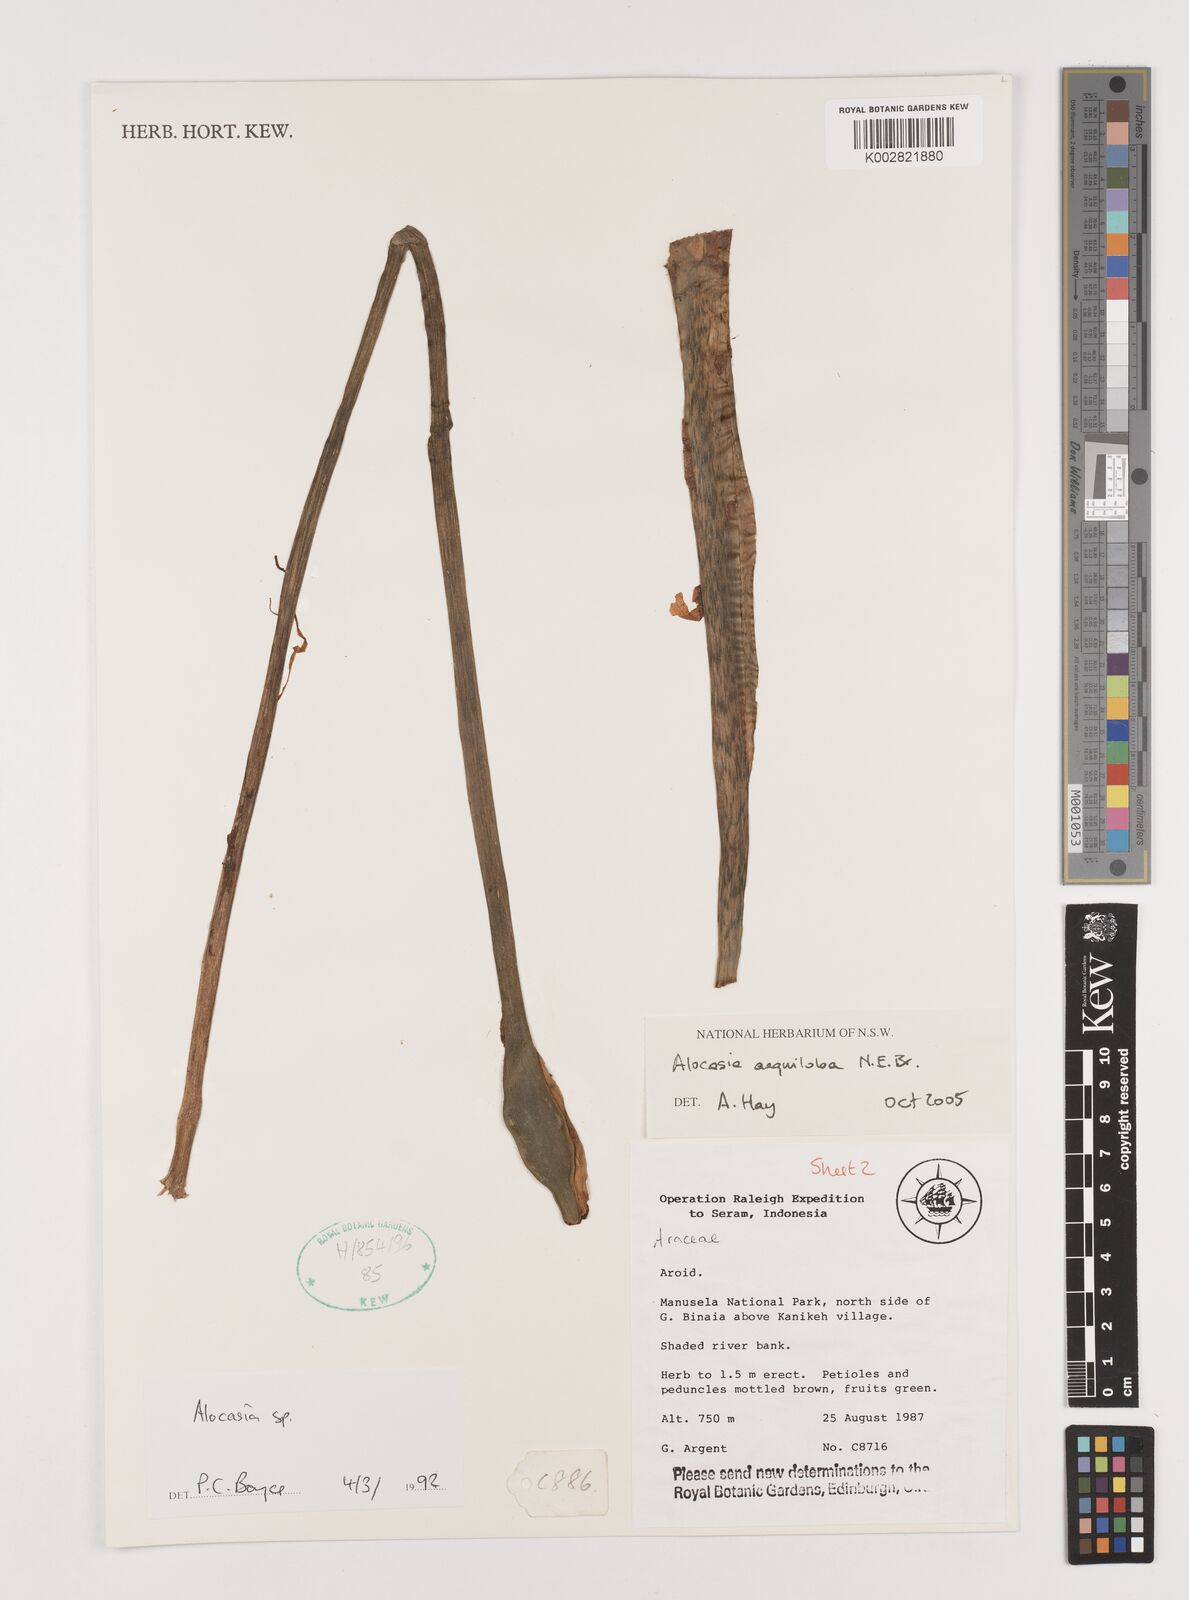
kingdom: Plantae
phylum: Tracheophyta
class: Liliopsida
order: Alismatales
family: Araceae
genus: Alocasia
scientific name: Alocasia
